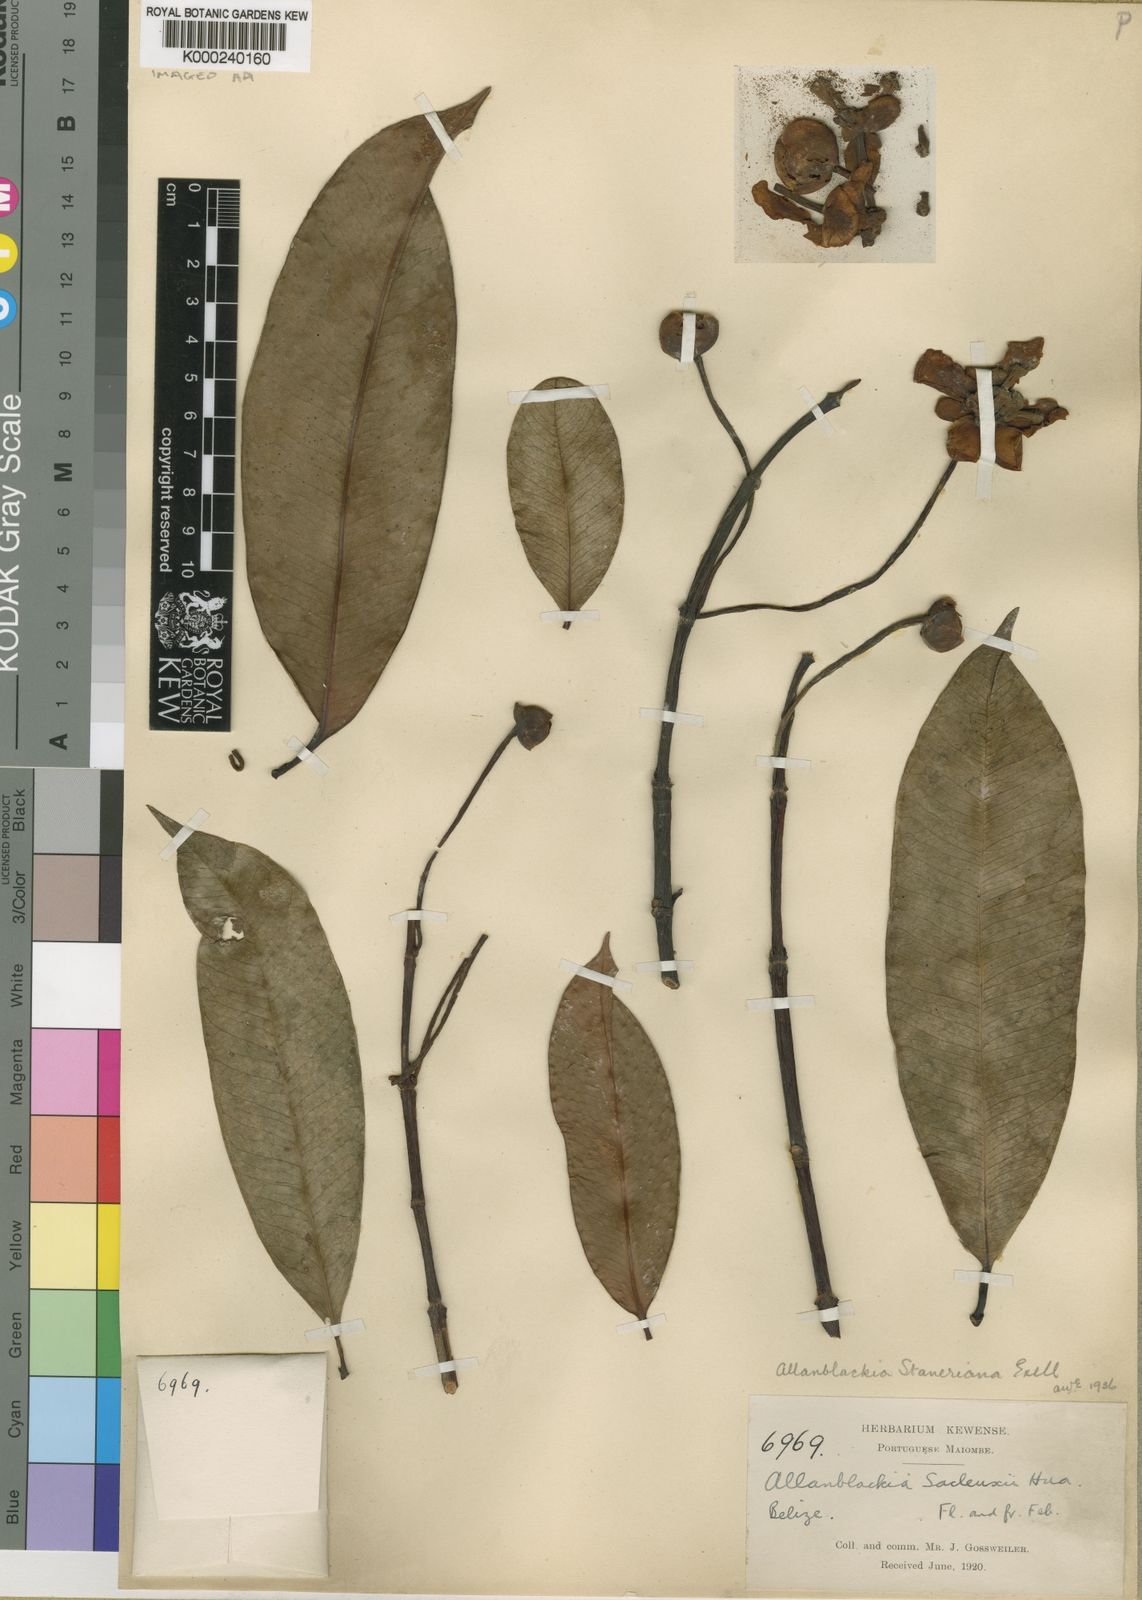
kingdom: Plantae
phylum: Tracheophyta
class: Magnoliopsida
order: Malpighiales
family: Clusiaceae
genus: Allanblackia
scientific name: Allanblackia staneriana
